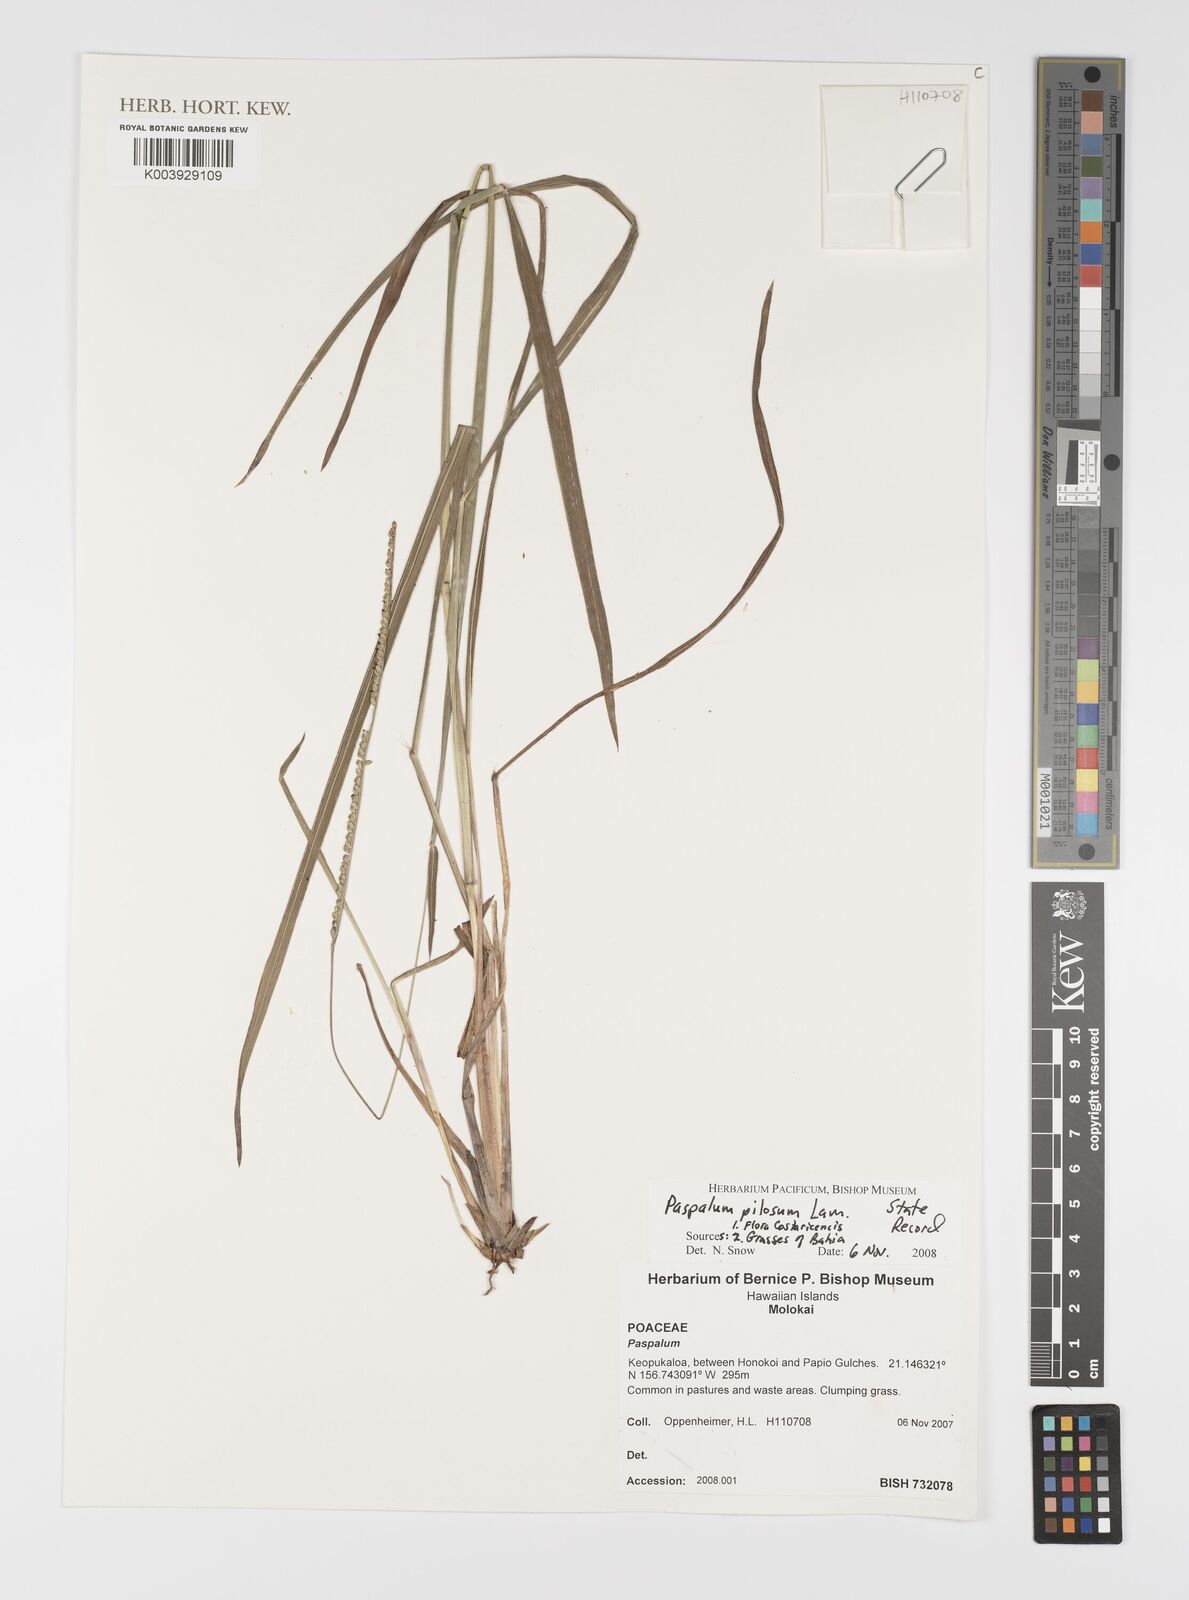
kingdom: Plantae
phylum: Tracheophyta
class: Liliopsida
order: Poales
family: Poaceae
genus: Paspalum
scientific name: Paspalum pilosum
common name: Crowngrass
